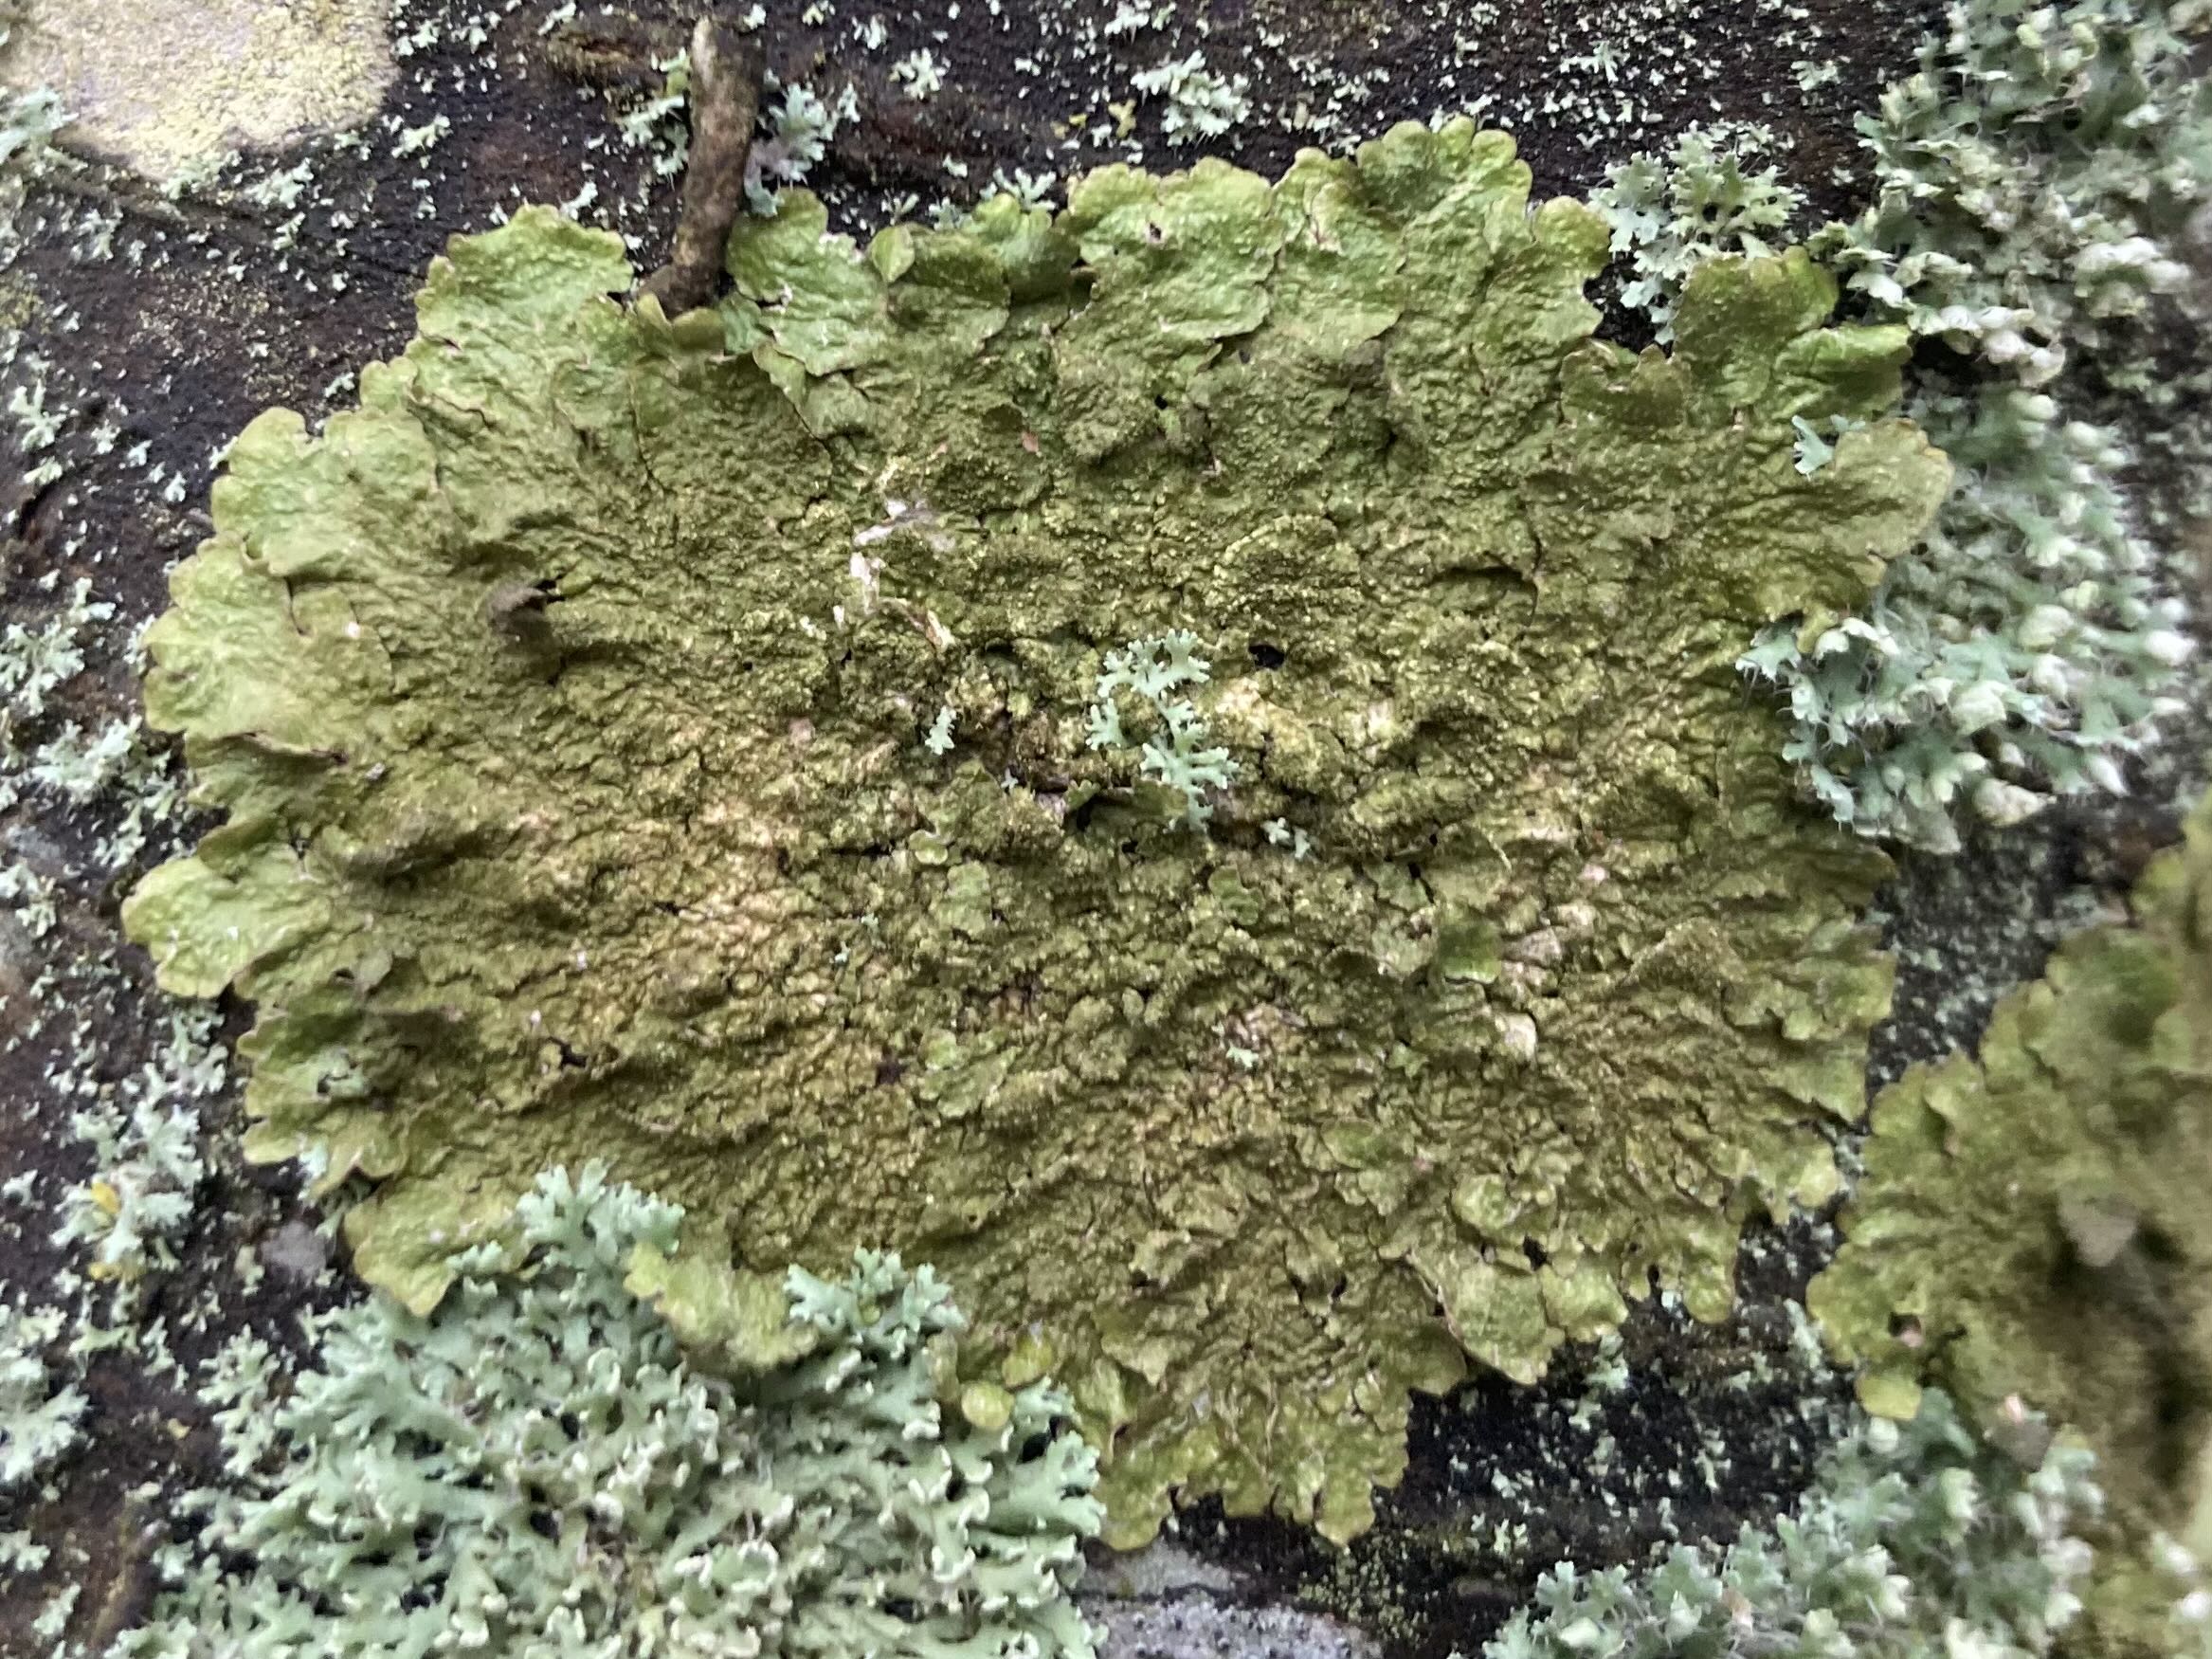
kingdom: Fungi
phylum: Ascomycota
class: Lecanoromycetes
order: Lecanorales
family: Parmeliaceae
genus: Melanelixia
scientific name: Melanelixia subaurifera
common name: guldpudret skållav
